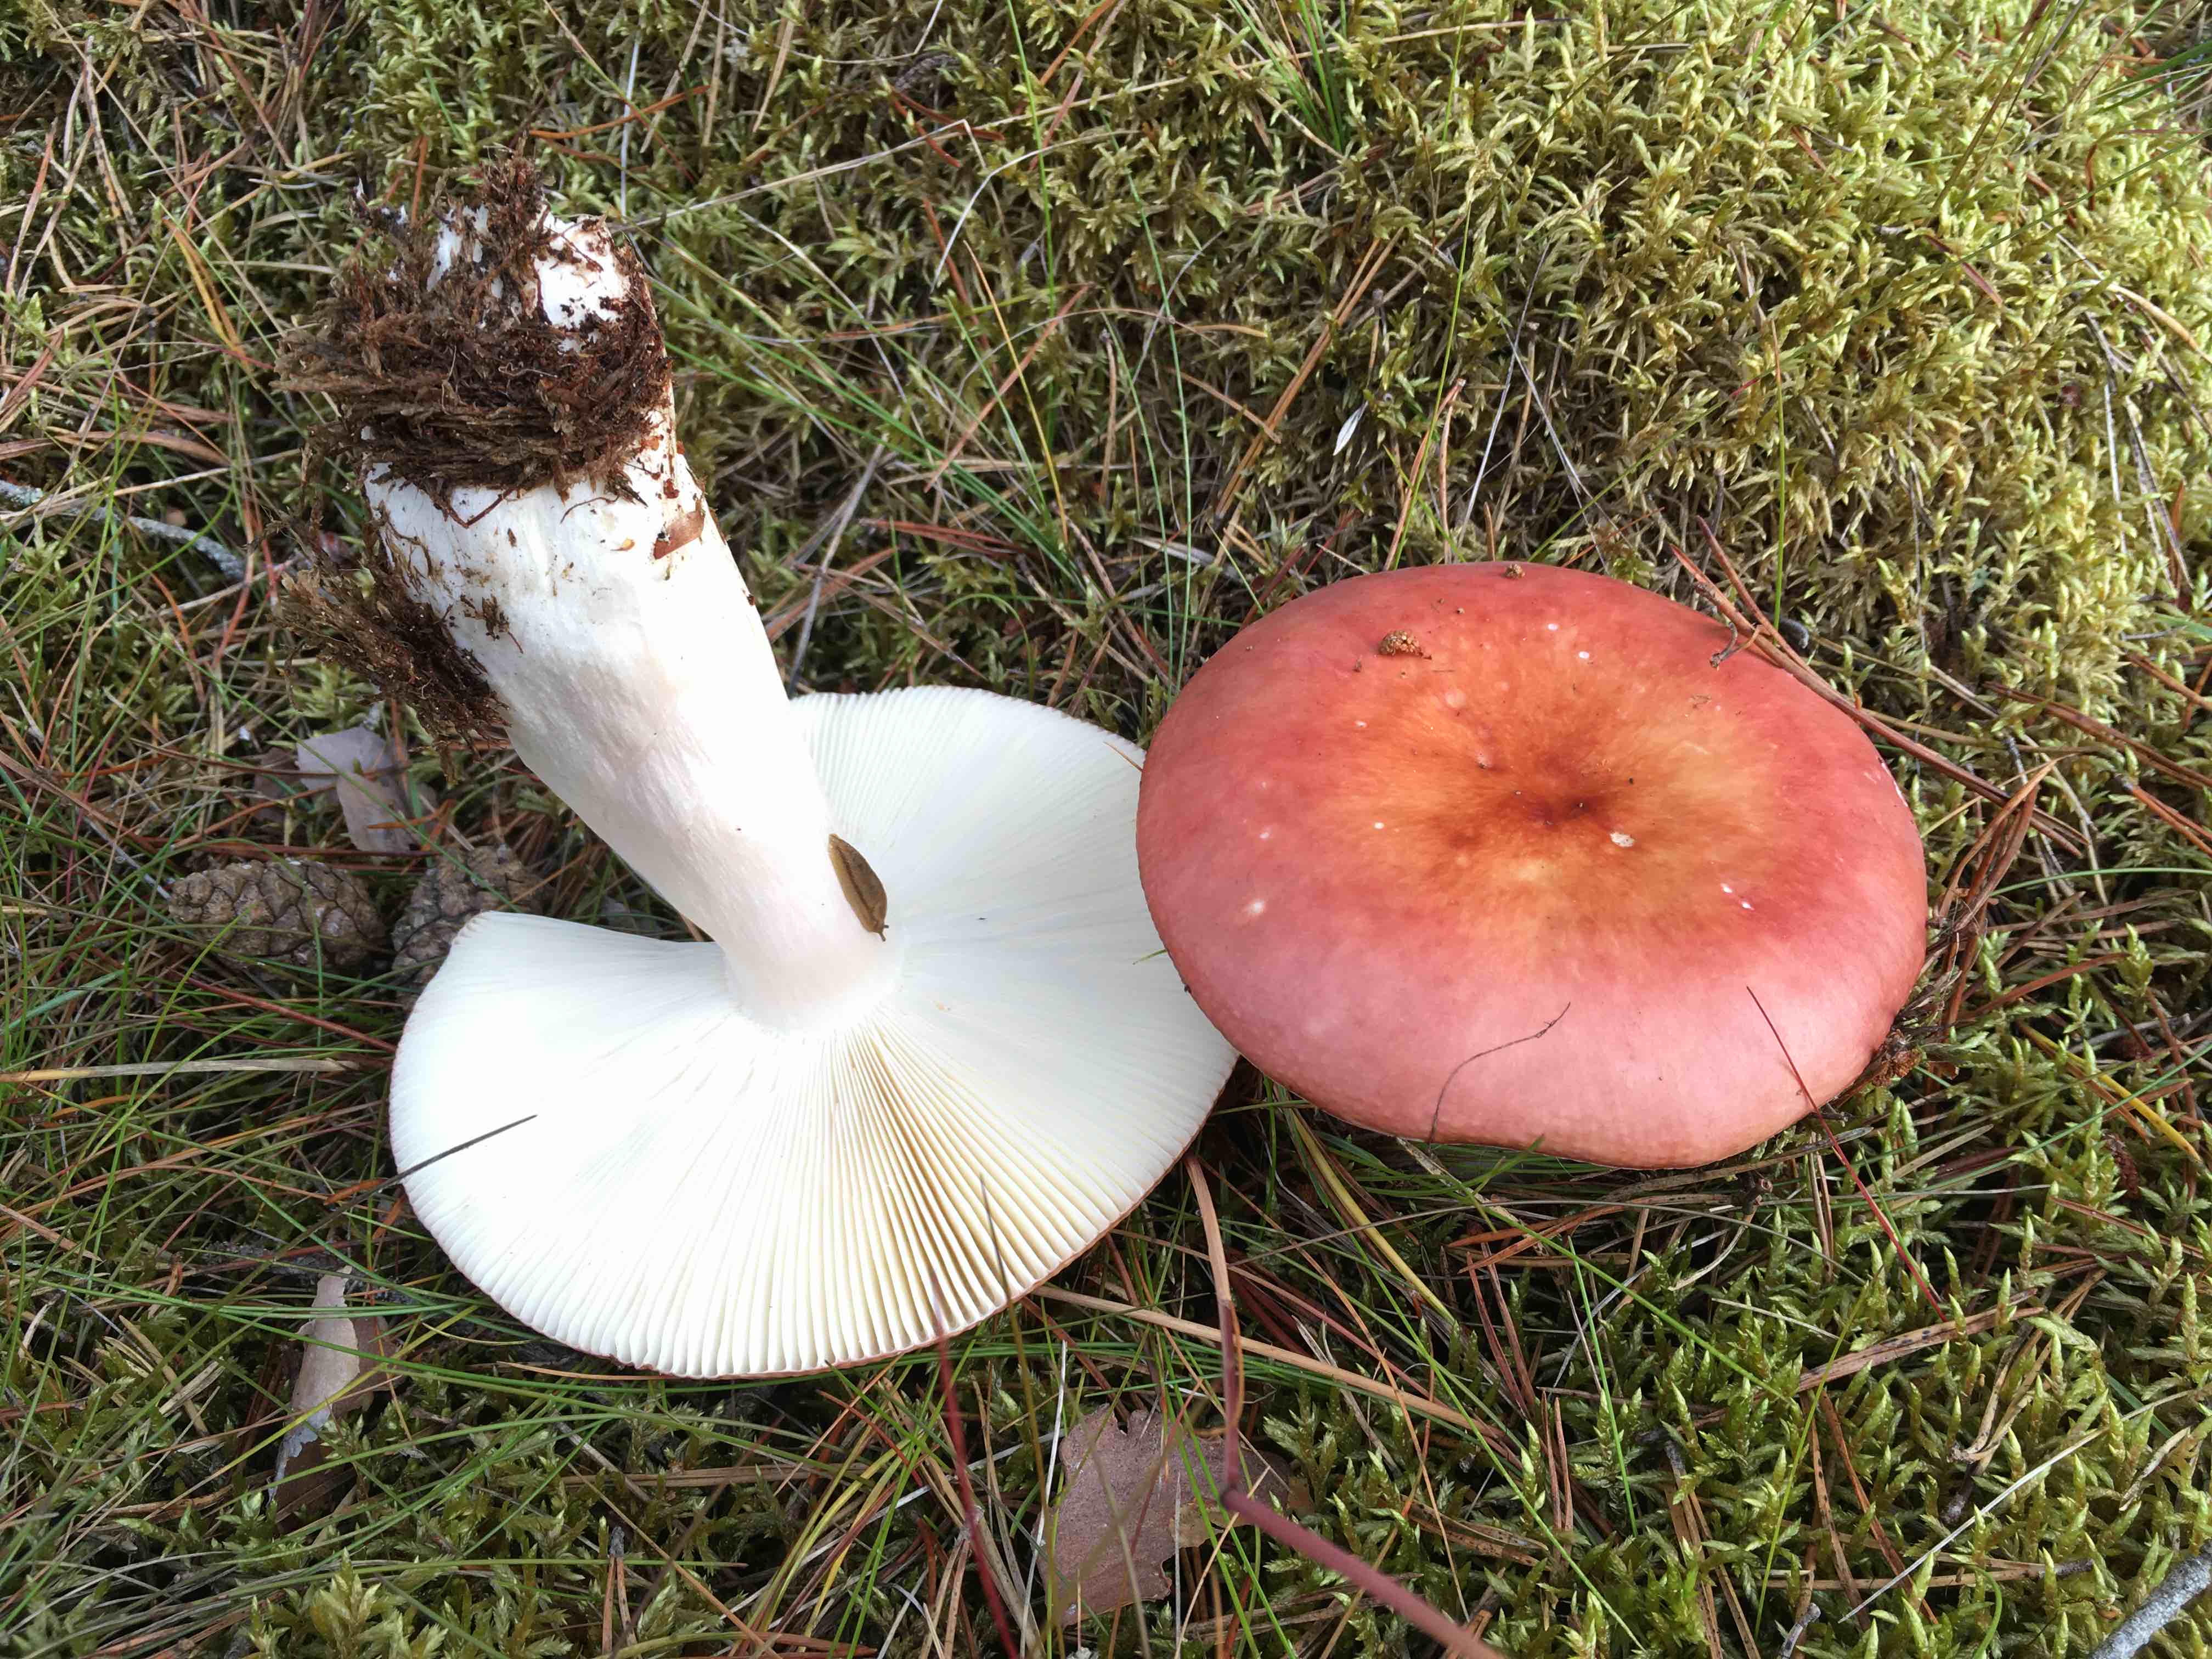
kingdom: Fungi
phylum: Basidiomycota
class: Agaricomycetes
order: Russulales
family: Russulaceae
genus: Russula
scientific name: Russula paludosa
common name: prægtig skørhat
